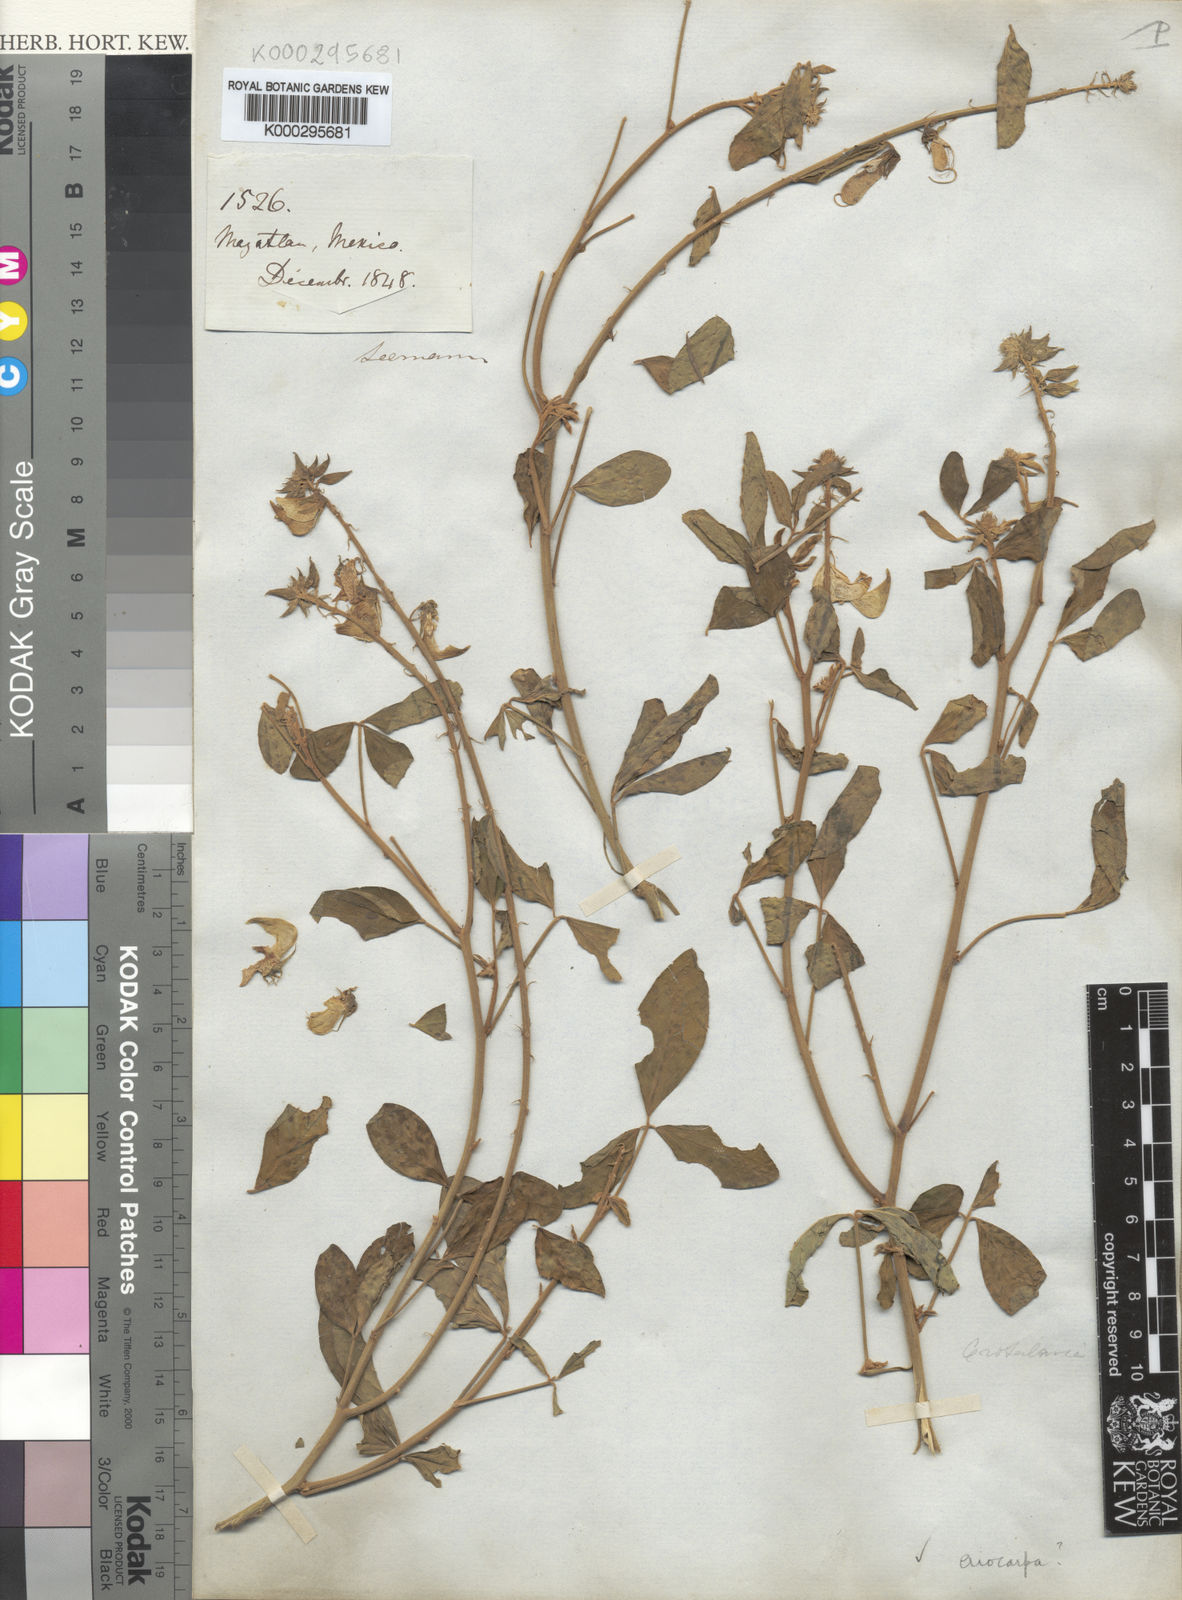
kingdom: Plantae
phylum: Tracheophyta
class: Magnoliopsida
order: Fabales
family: Fabaceae
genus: Crotalaria
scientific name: Crotalaria eriocarpa
